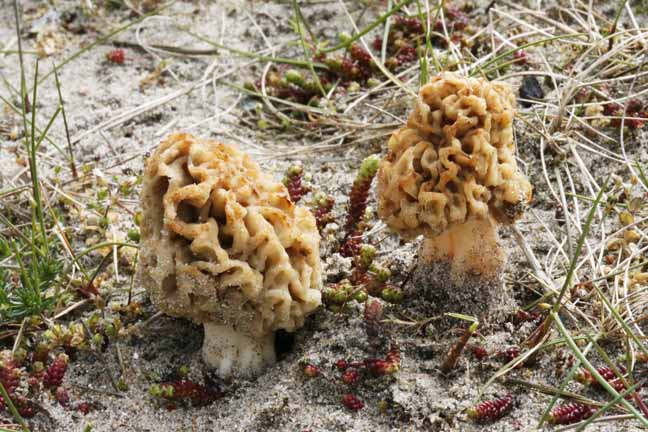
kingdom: Fungi
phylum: Ascomycota
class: Pezizomycetes
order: Pezizales
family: Morchellaceae
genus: Morchella
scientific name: Morchella esculenta
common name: almindelig morkel
